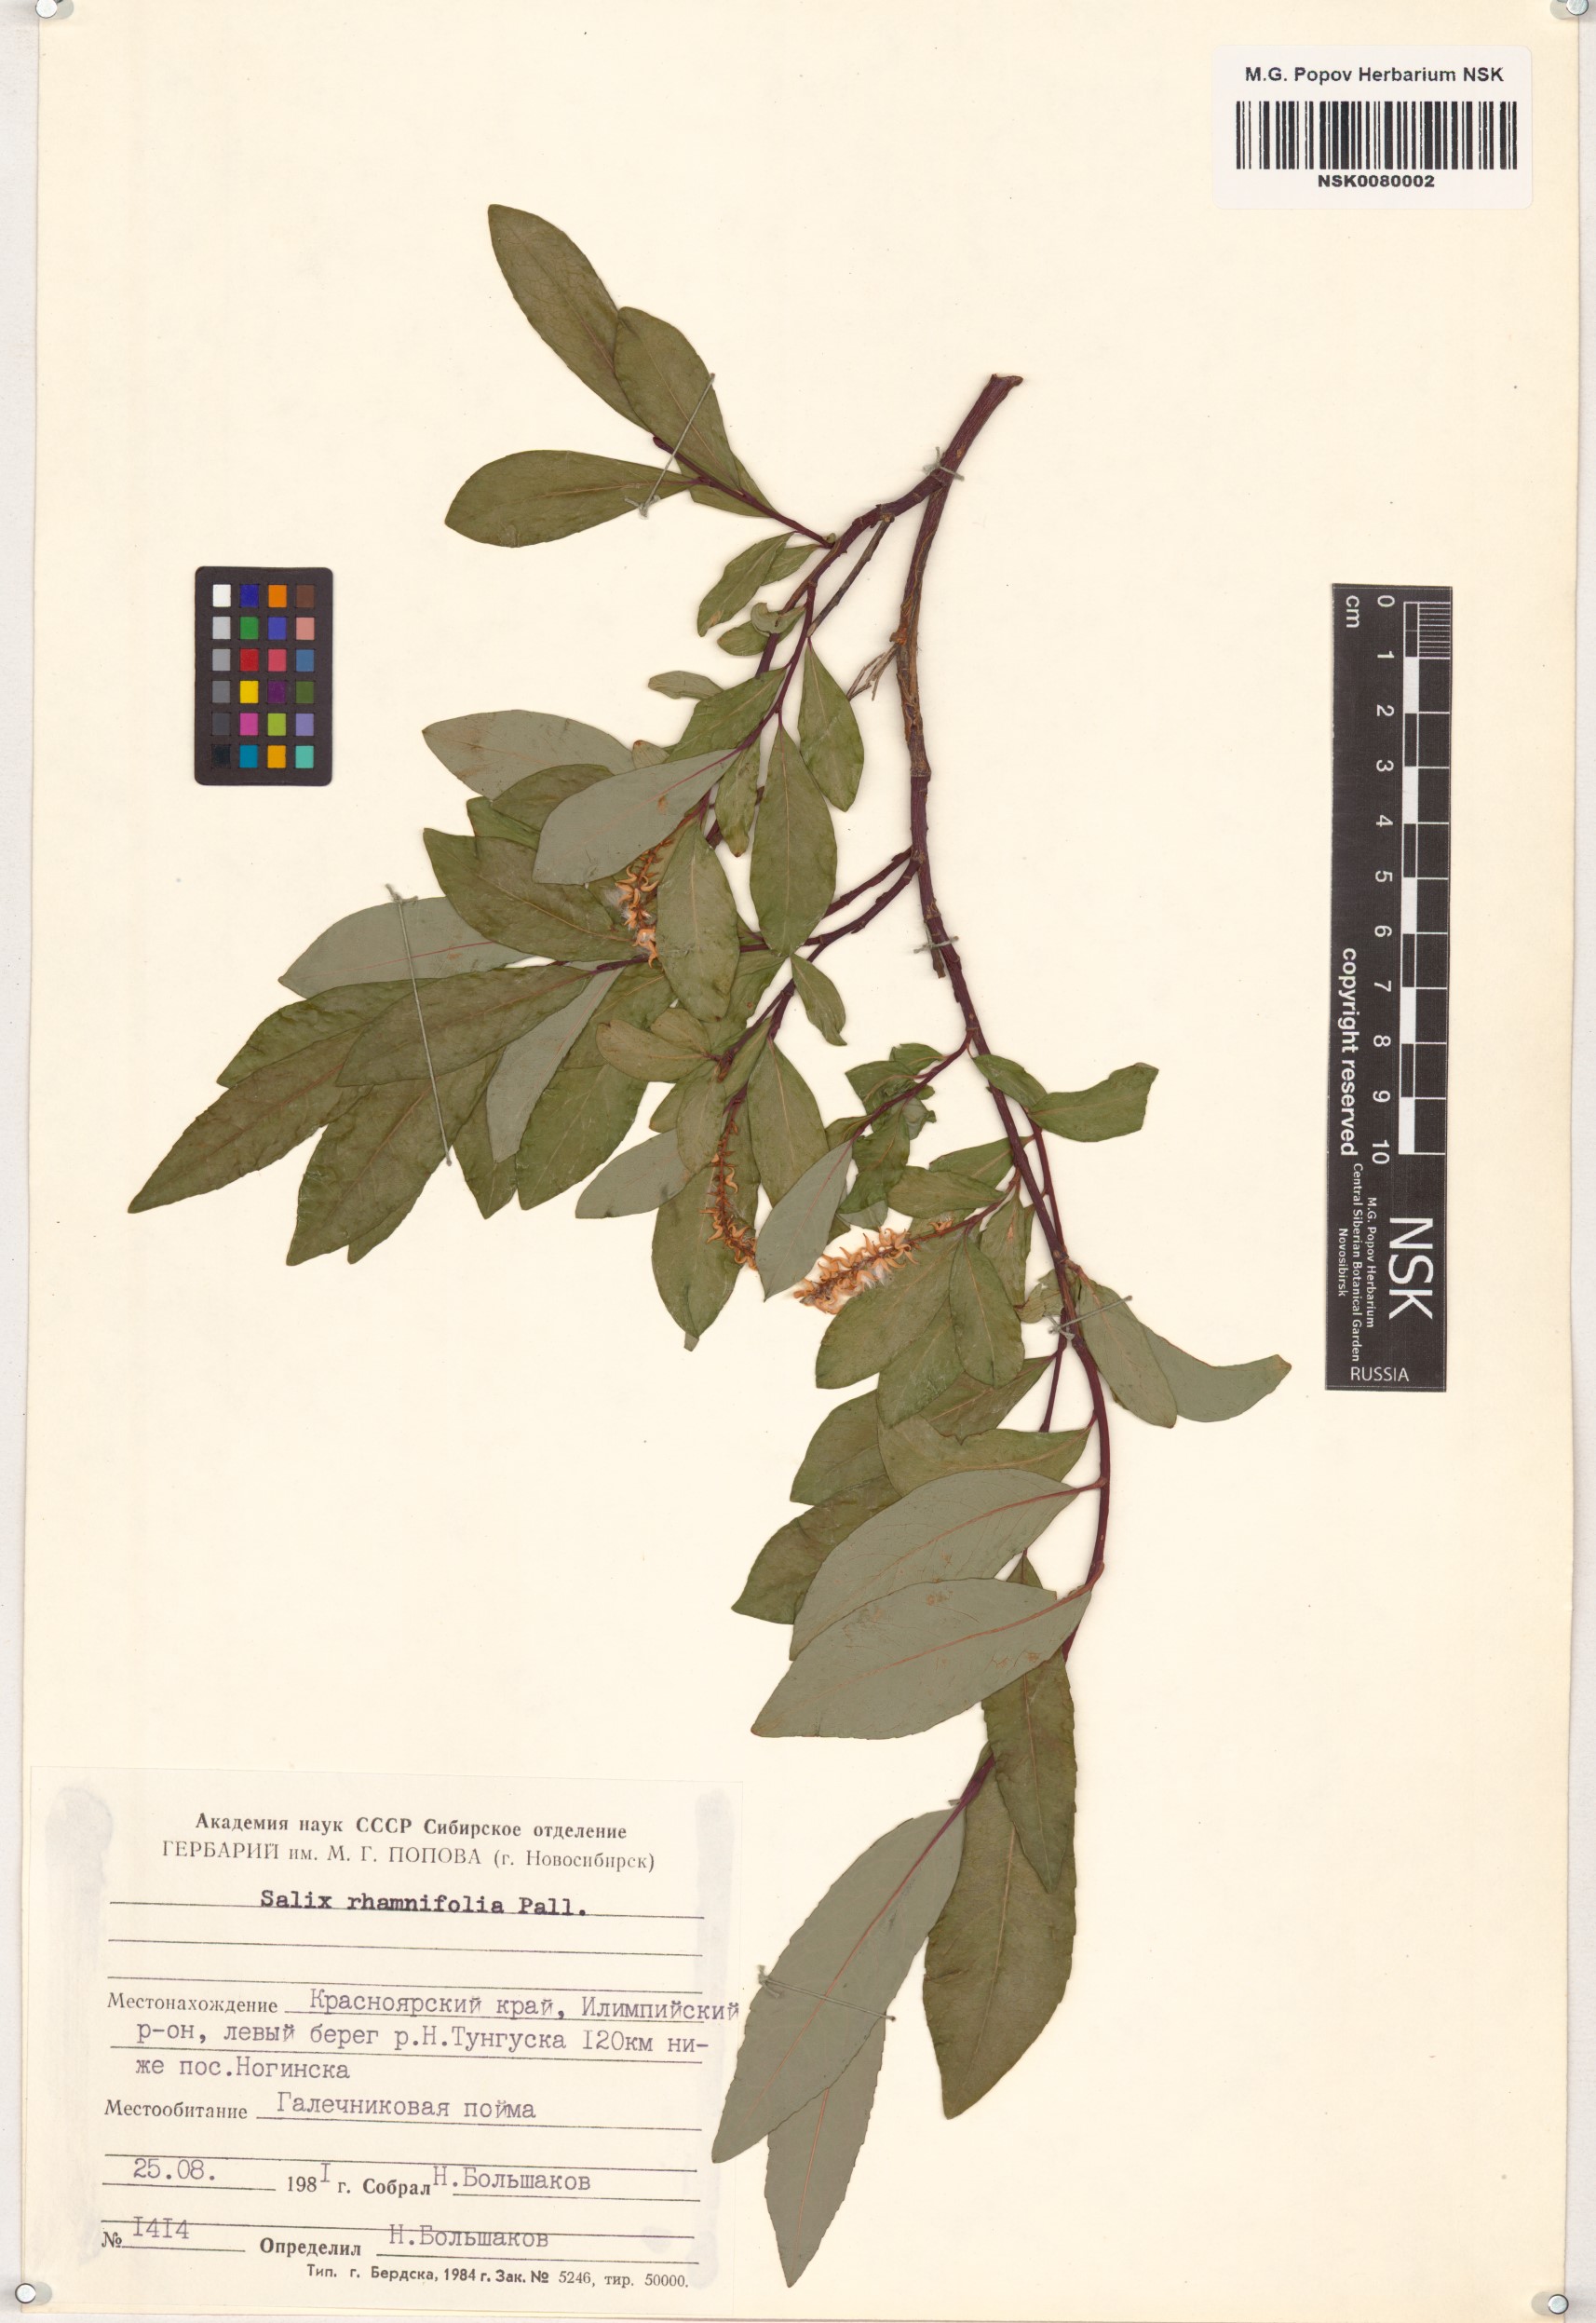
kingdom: Plantae
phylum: Tracheophyta
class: Magnoliopsida
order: Malpighiales
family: Salicaceae
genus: Salix
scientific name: Salix rhamnifolia
